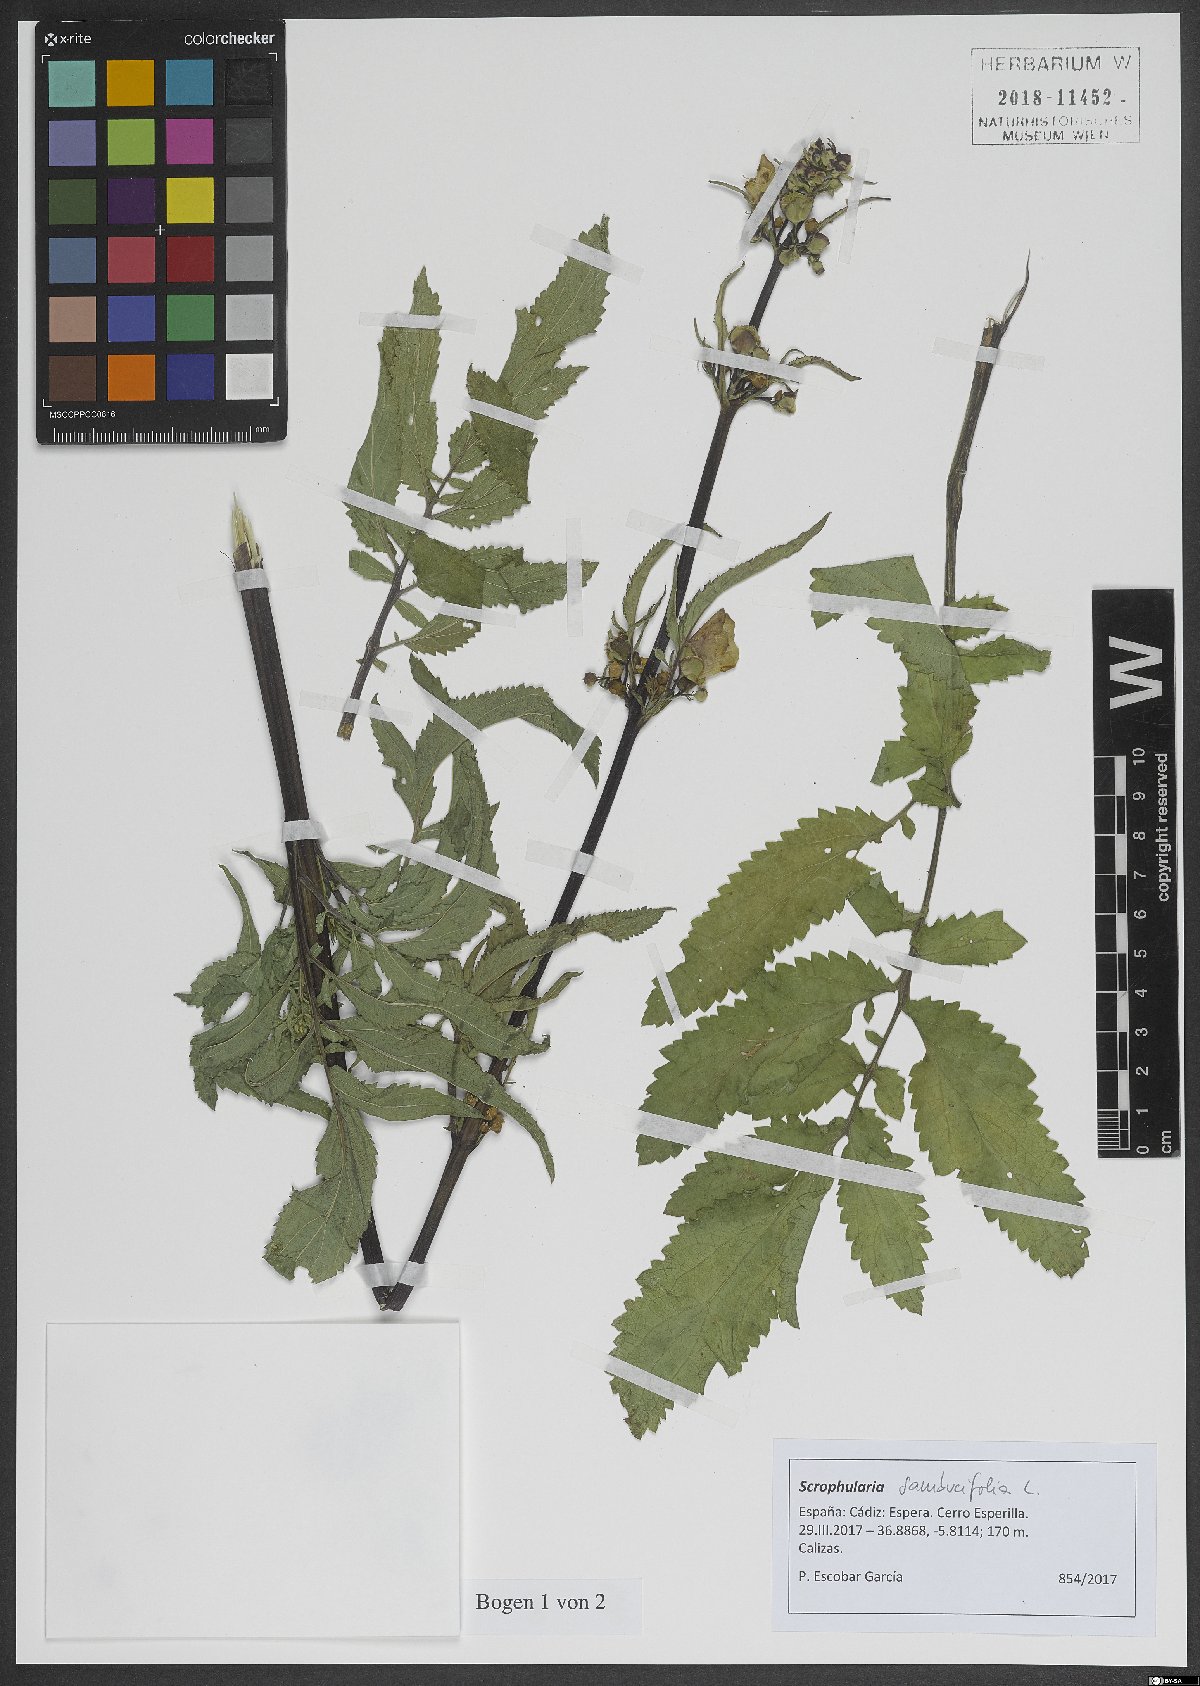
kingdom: Plantae
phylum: Tracheophyta
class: Magnoliopsida
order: Lamiales
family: Scrophulariaceae
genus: Scrophularia
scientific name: Scrophularia sambucifolia
